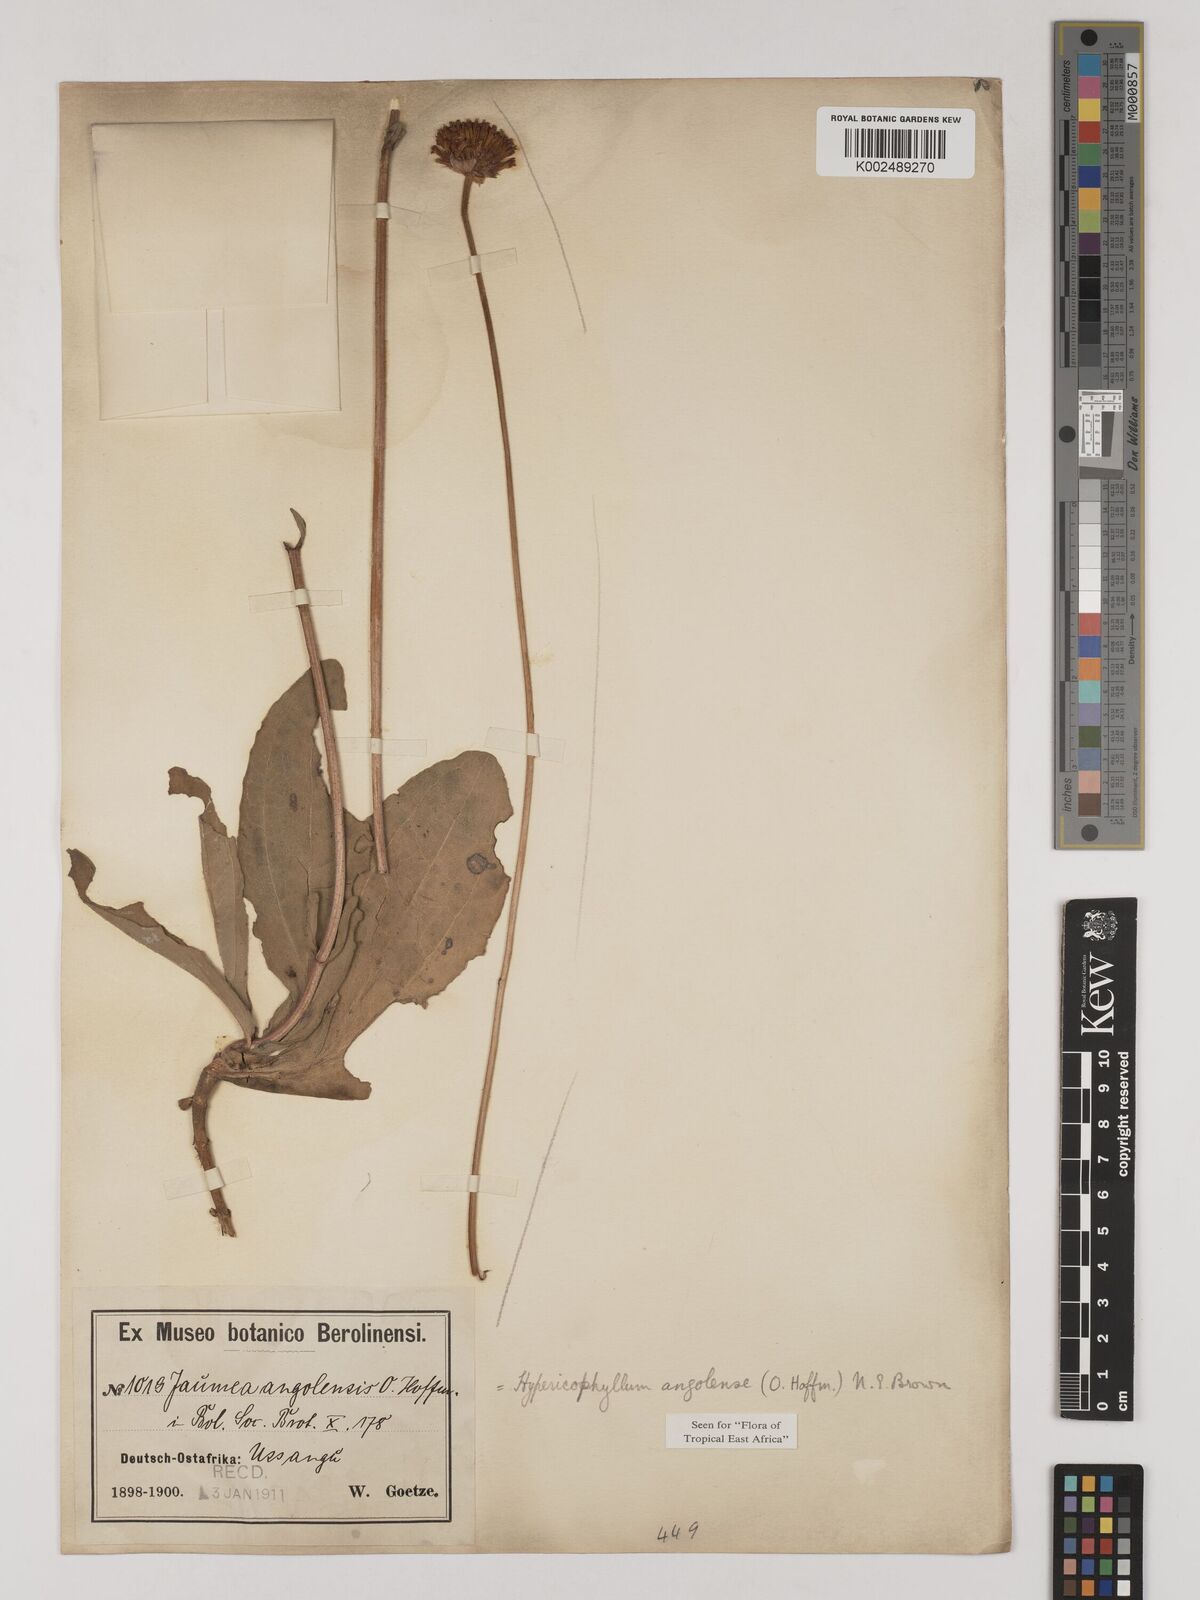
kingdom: Plantae
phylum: Tracheophyta
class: Magnoliopsida
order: Asterales
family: Asteraceae
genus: Hypericophyllum
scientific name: Hypericophyllum angolense
